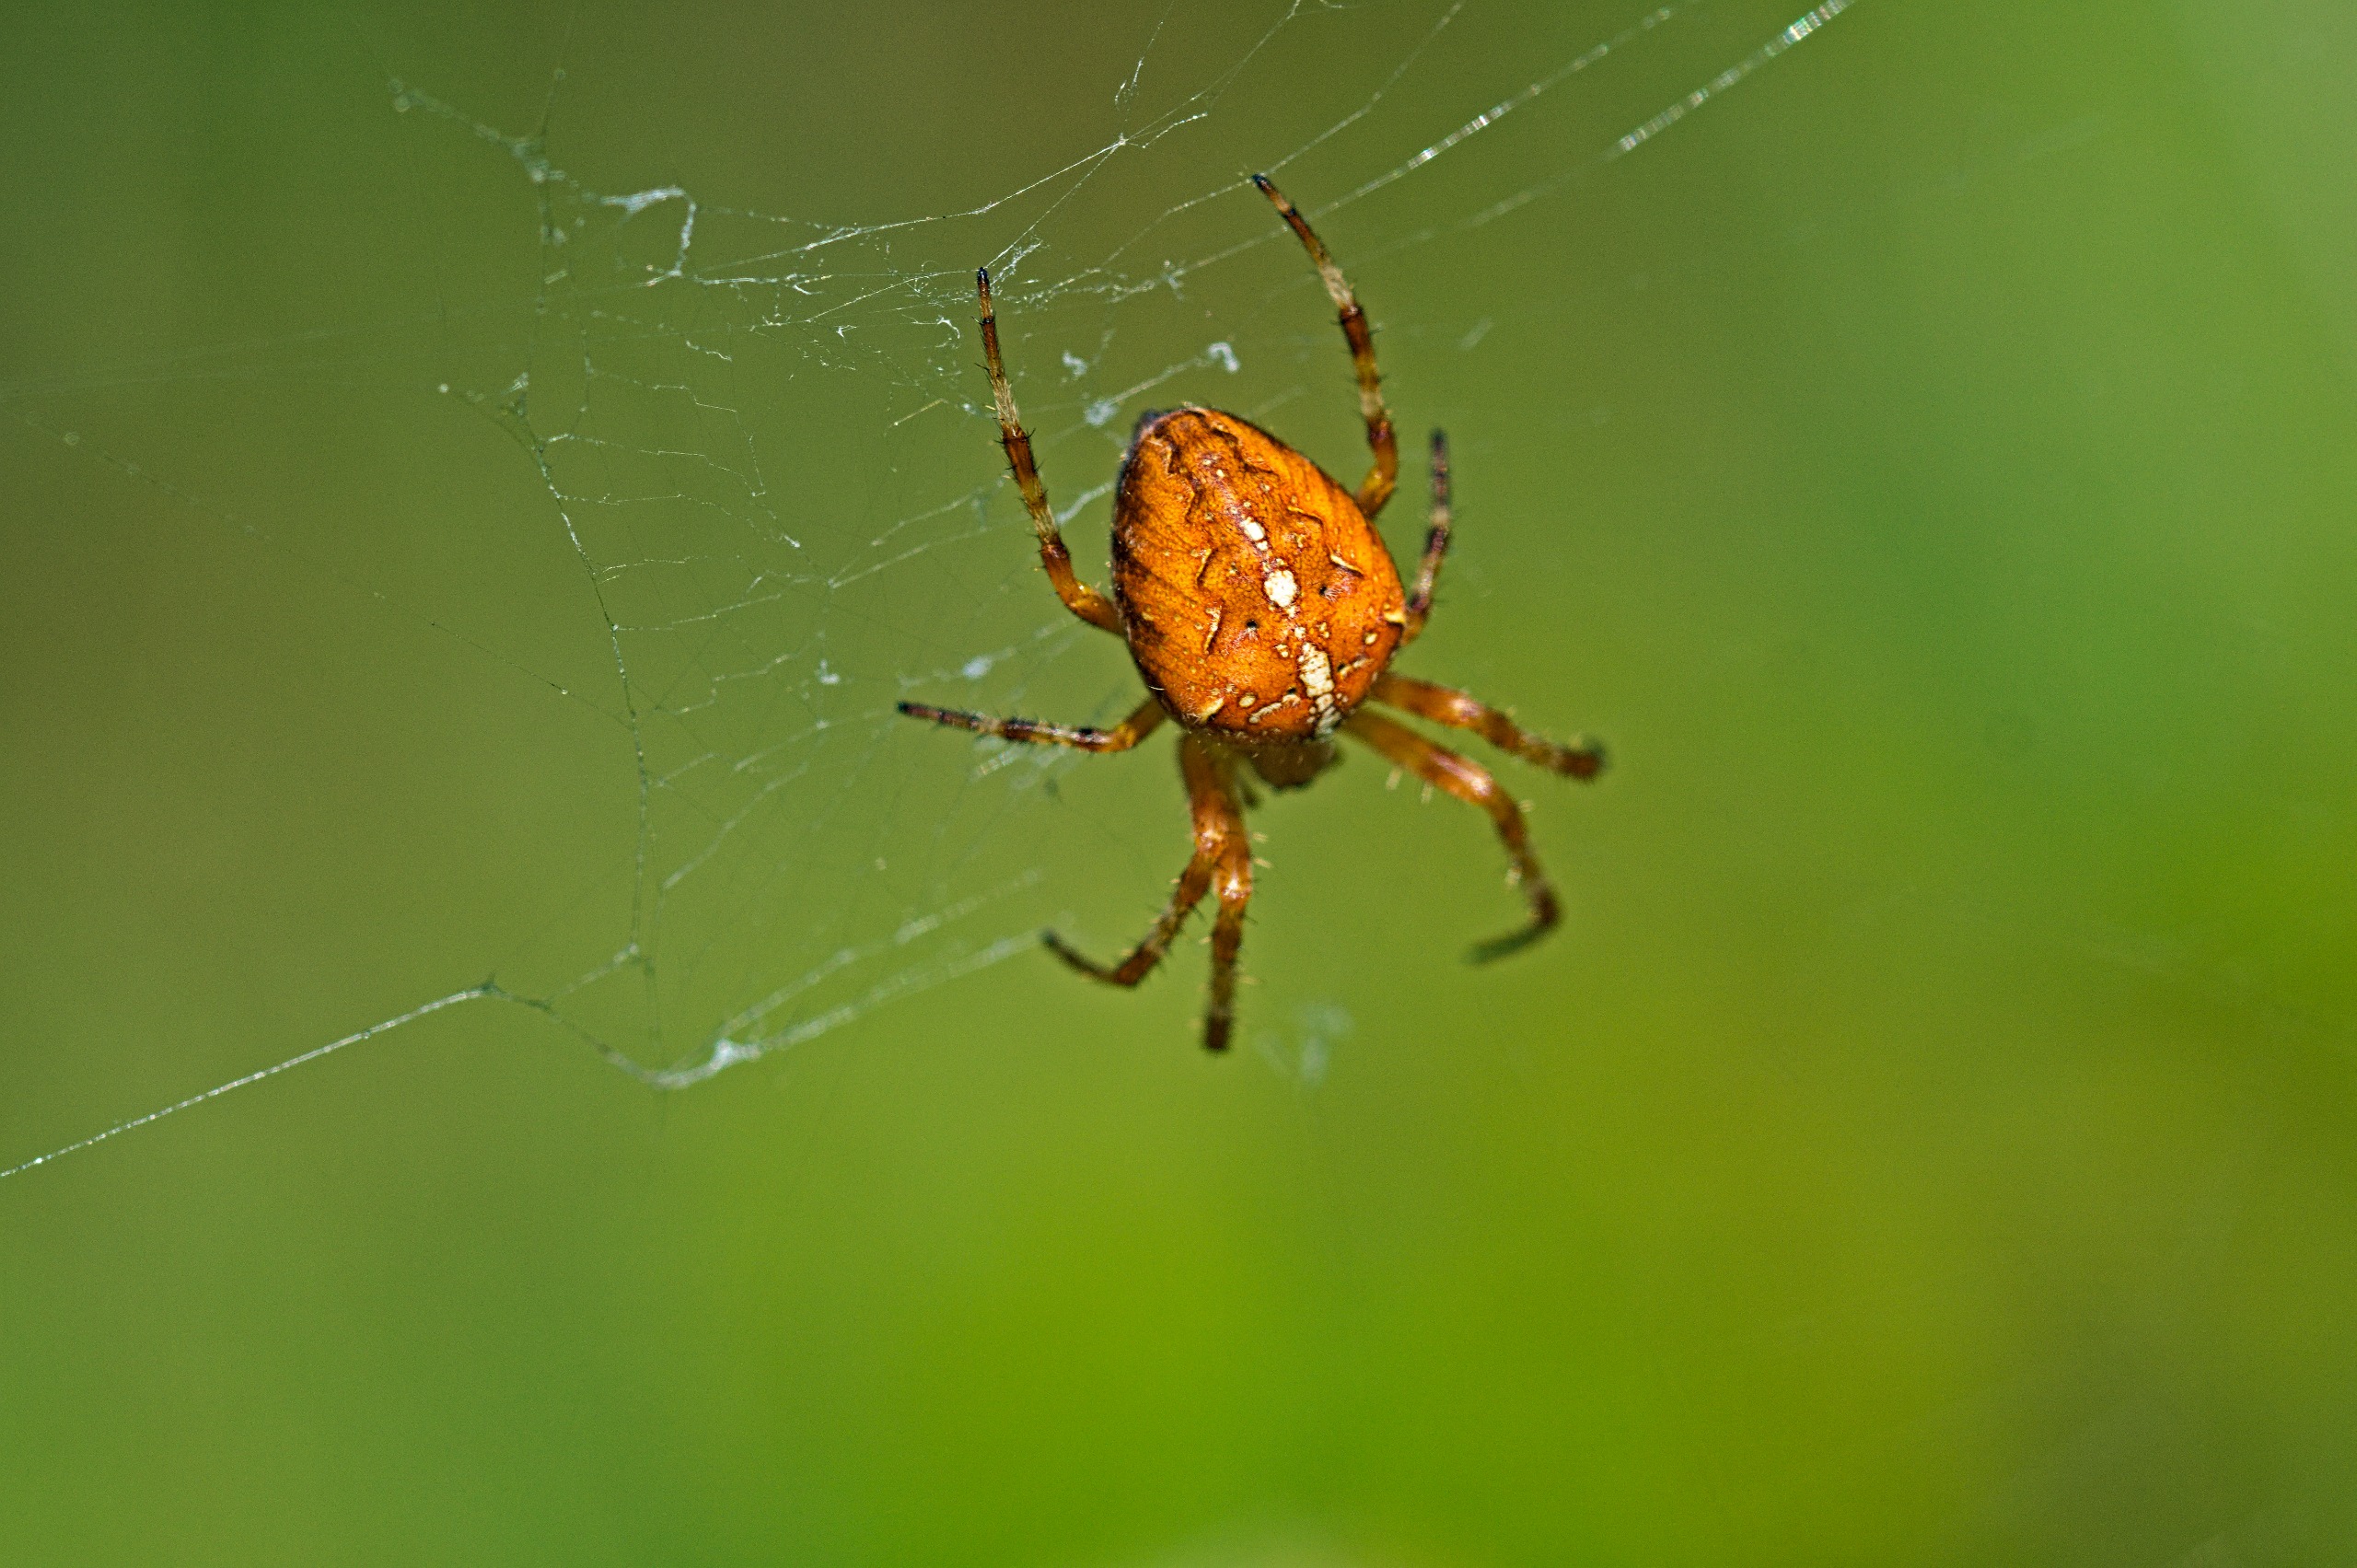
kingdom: Animalia
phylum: Arthropoda
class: Arachnida
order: Araneae
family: Araneidae
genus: Araneus
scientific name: Araneus diadematus
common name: Korsedderkop
